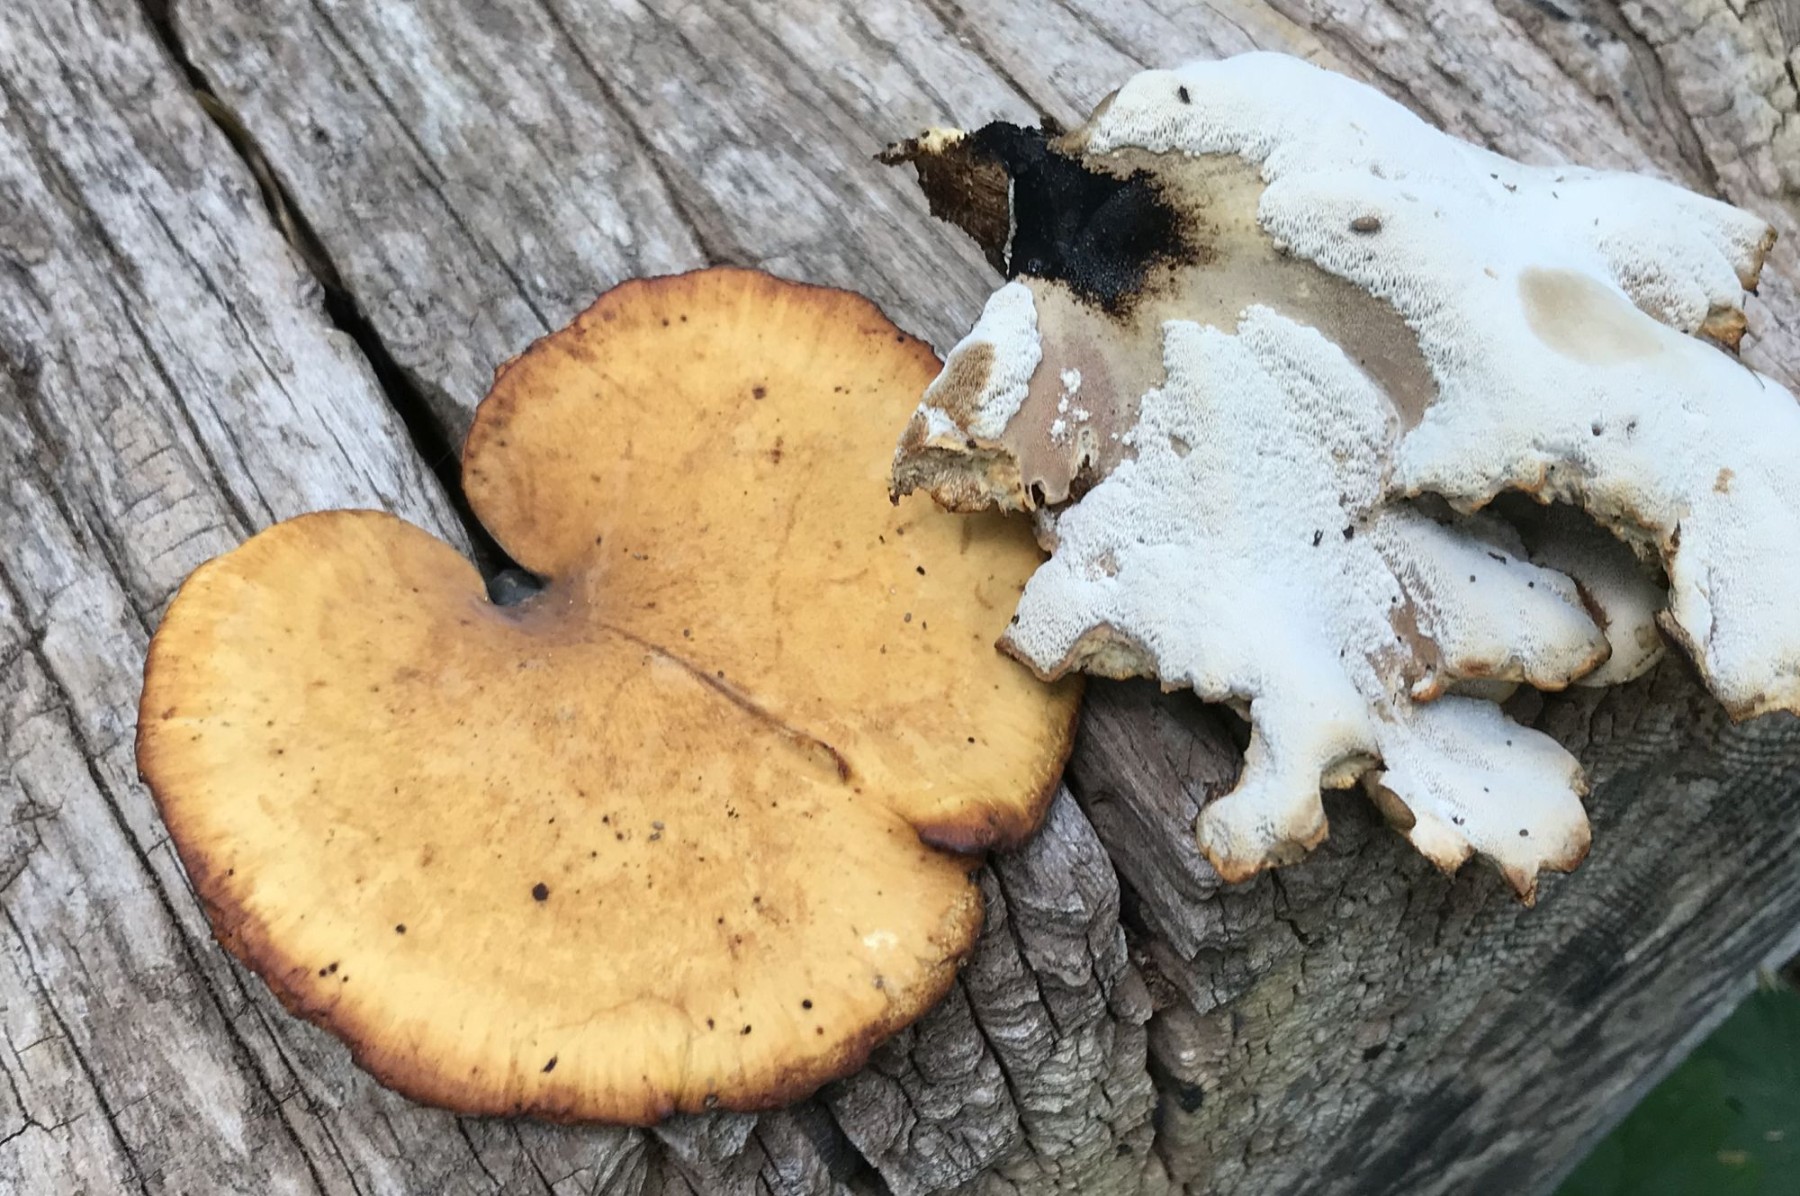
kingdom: Fungi
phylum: Basidiomycota
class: Agaricomycetes
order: Polyporales
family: Polyporaceae
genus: Cerioporus
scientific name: Cerioporus varius
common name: foranderlig stilkporesvamp
